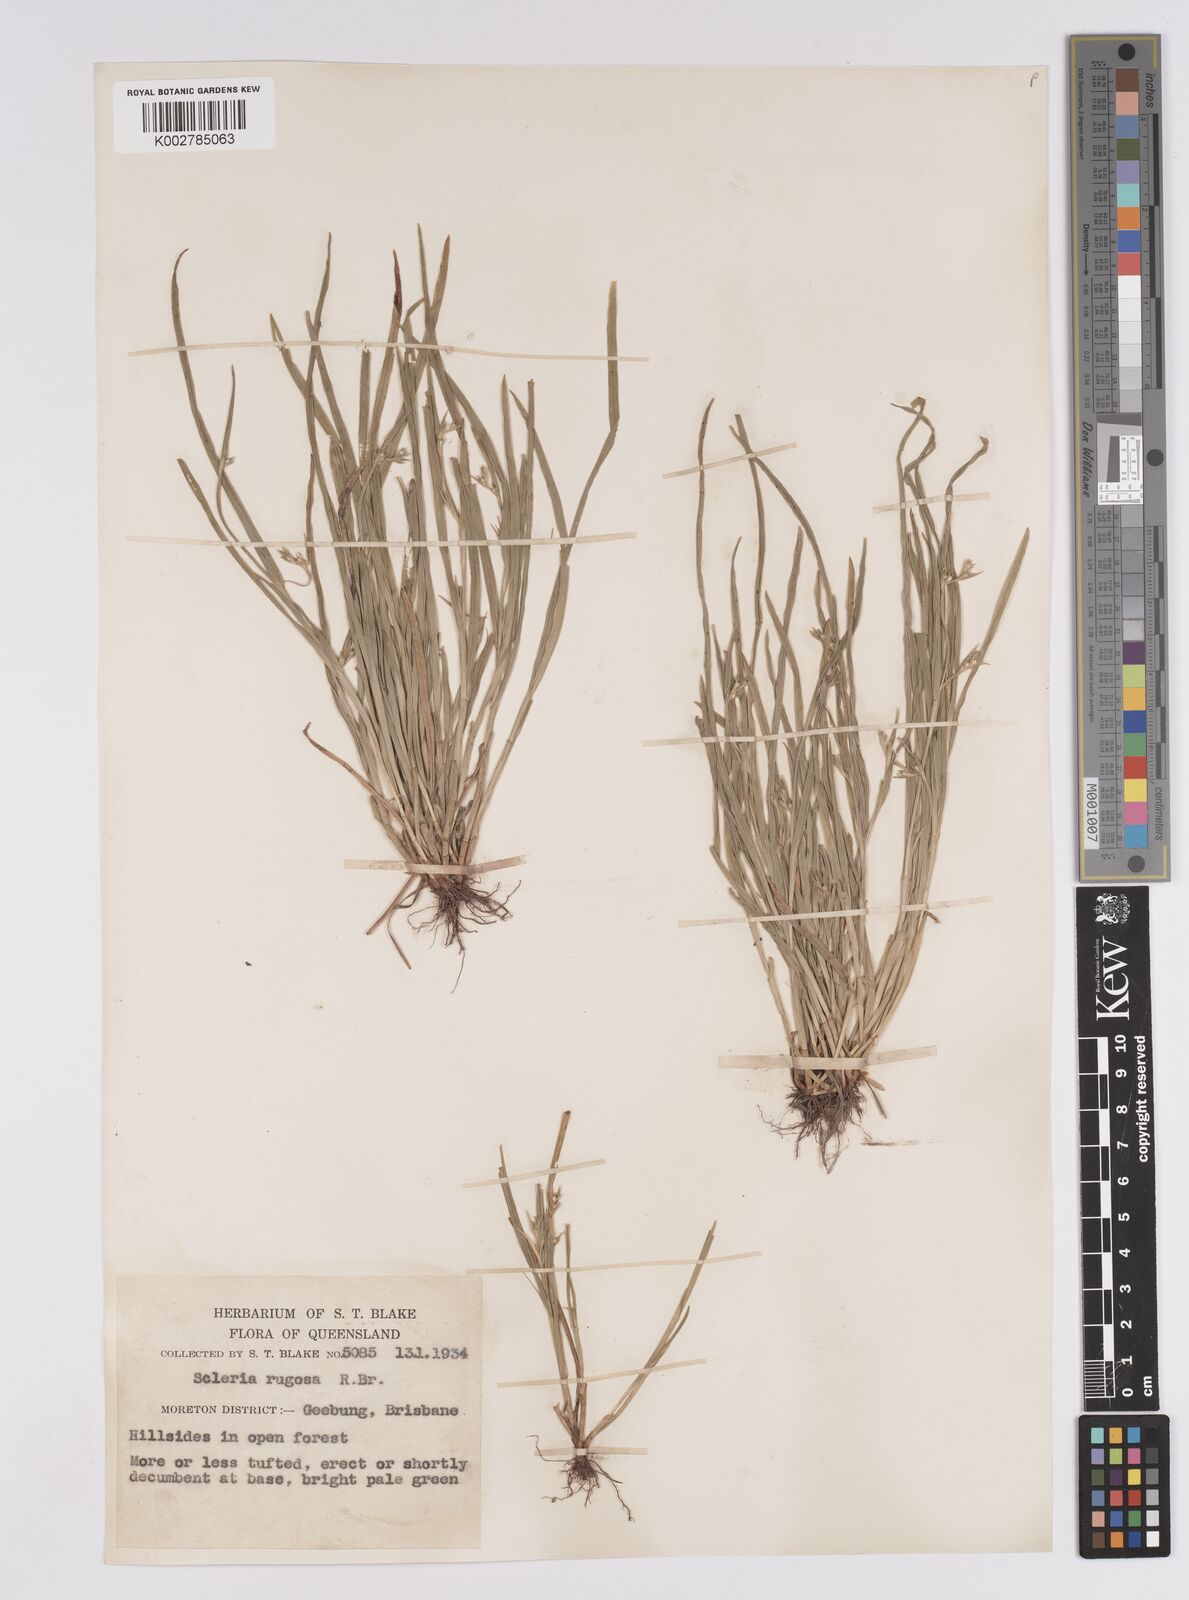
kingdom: Plantae
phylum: Tracheophyta
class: Liliopsida
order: Poales
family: Cyperaceae
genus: Scleria
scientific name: Scleria rugosa
